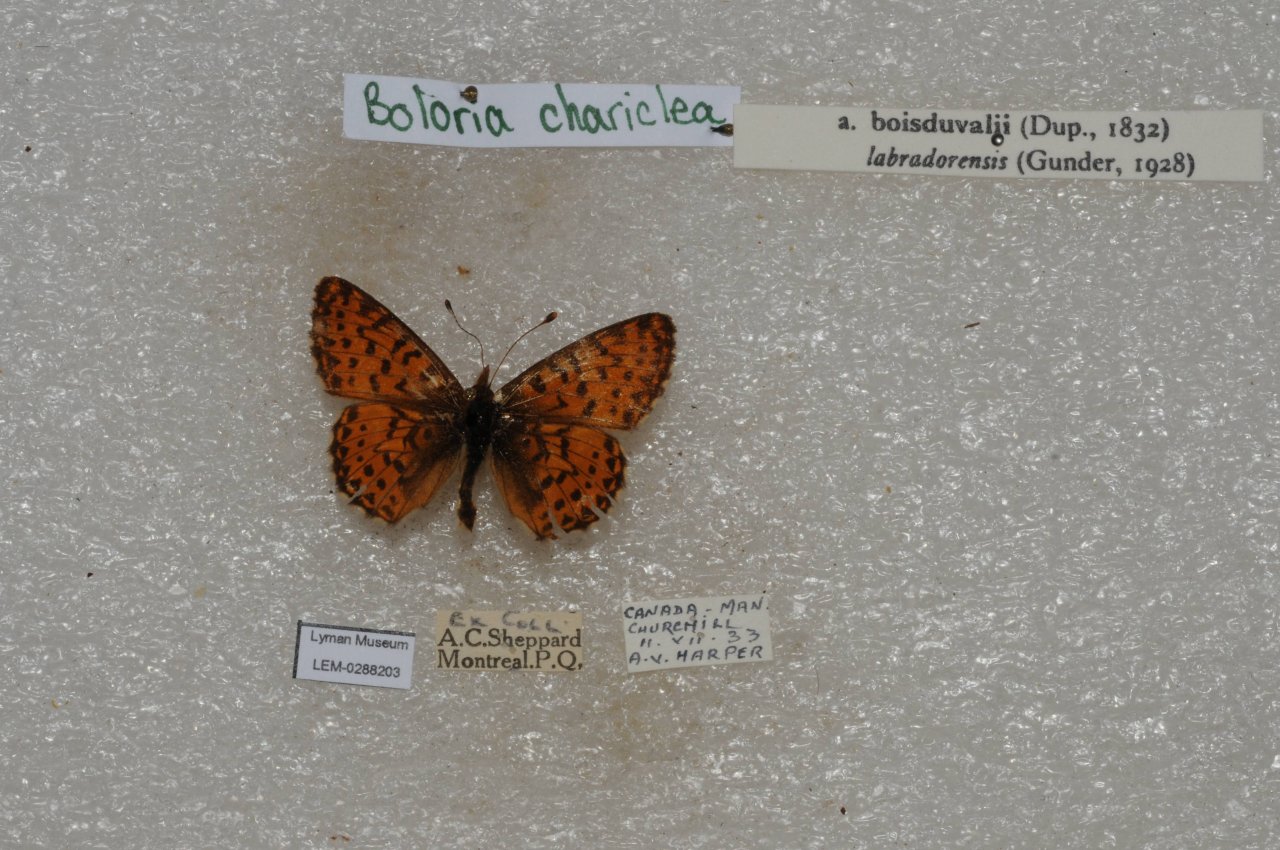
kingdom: Animalia
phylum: Arthropoda
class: Insecta
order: Lepidoptera
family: Nymphalidae
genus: Boloria
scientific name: Boloria chariclea
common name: Arctic Fritillary
